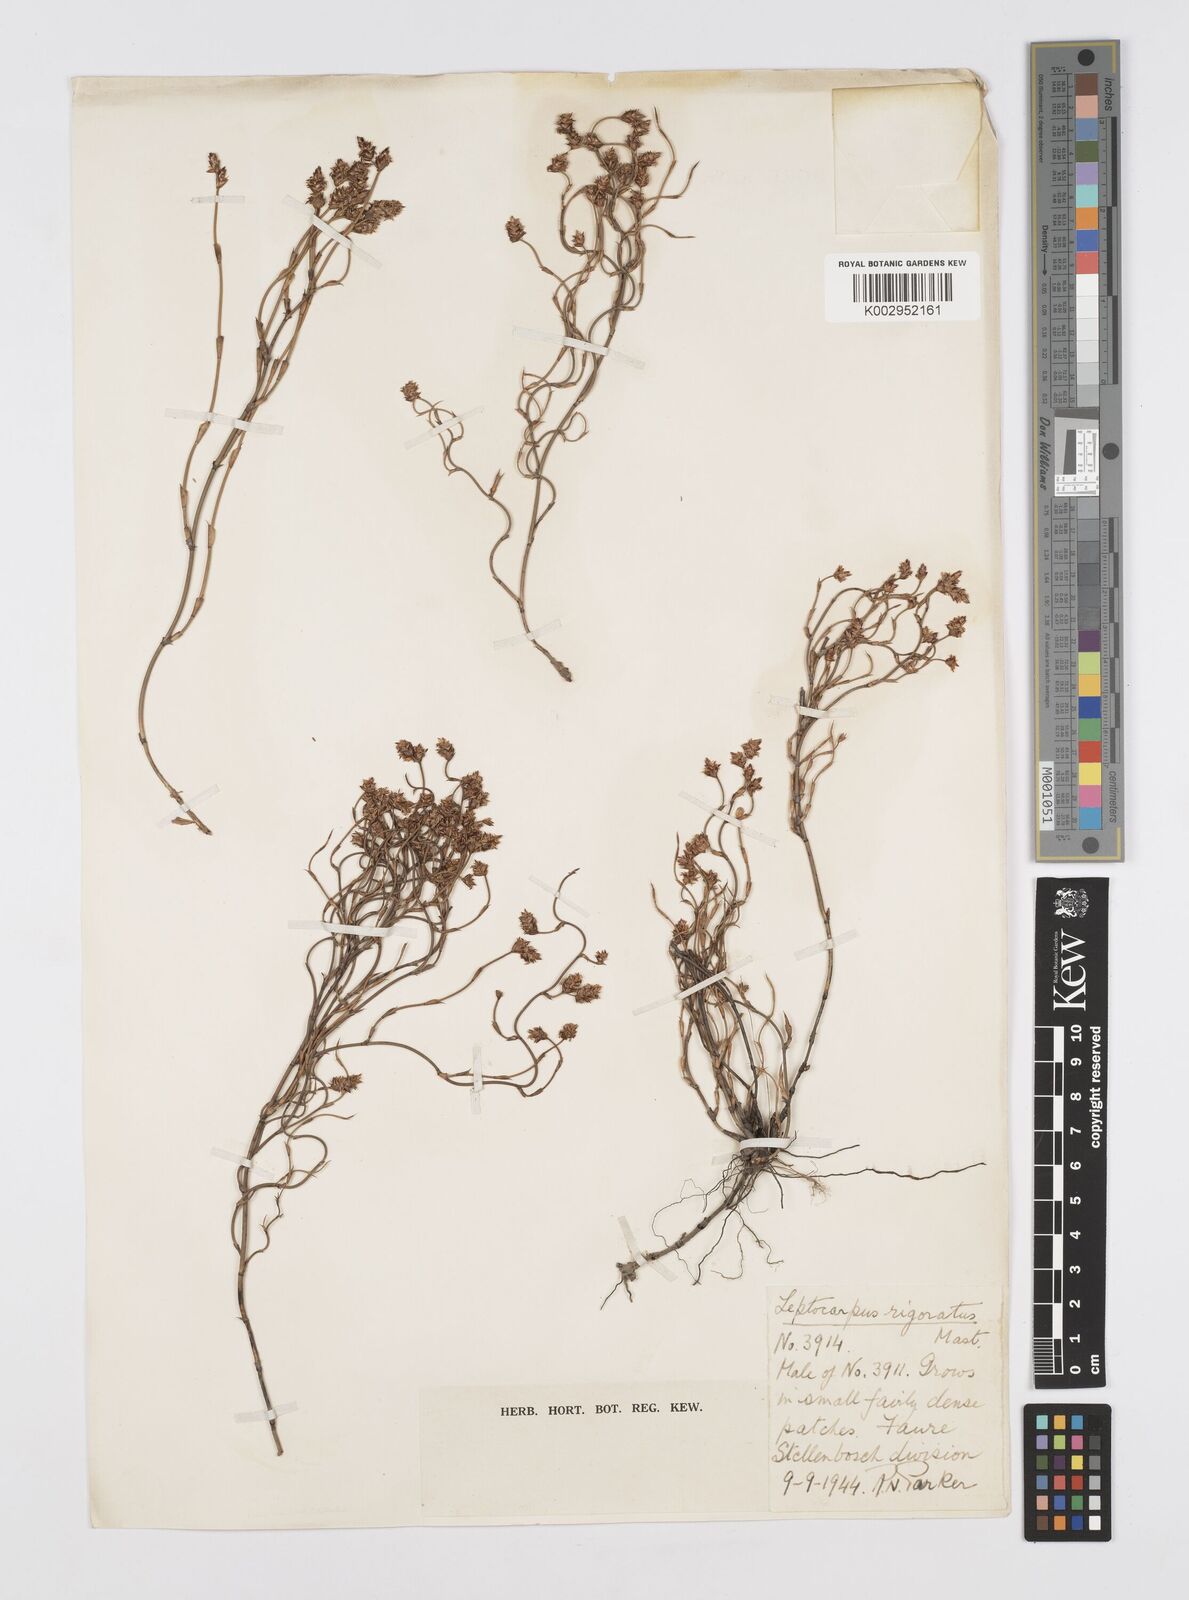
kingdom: Plantae
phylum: Tracheophyta
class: Liliopsida
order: Poales
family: Restionaceae
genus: Restio
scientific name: Restio rigoratus
